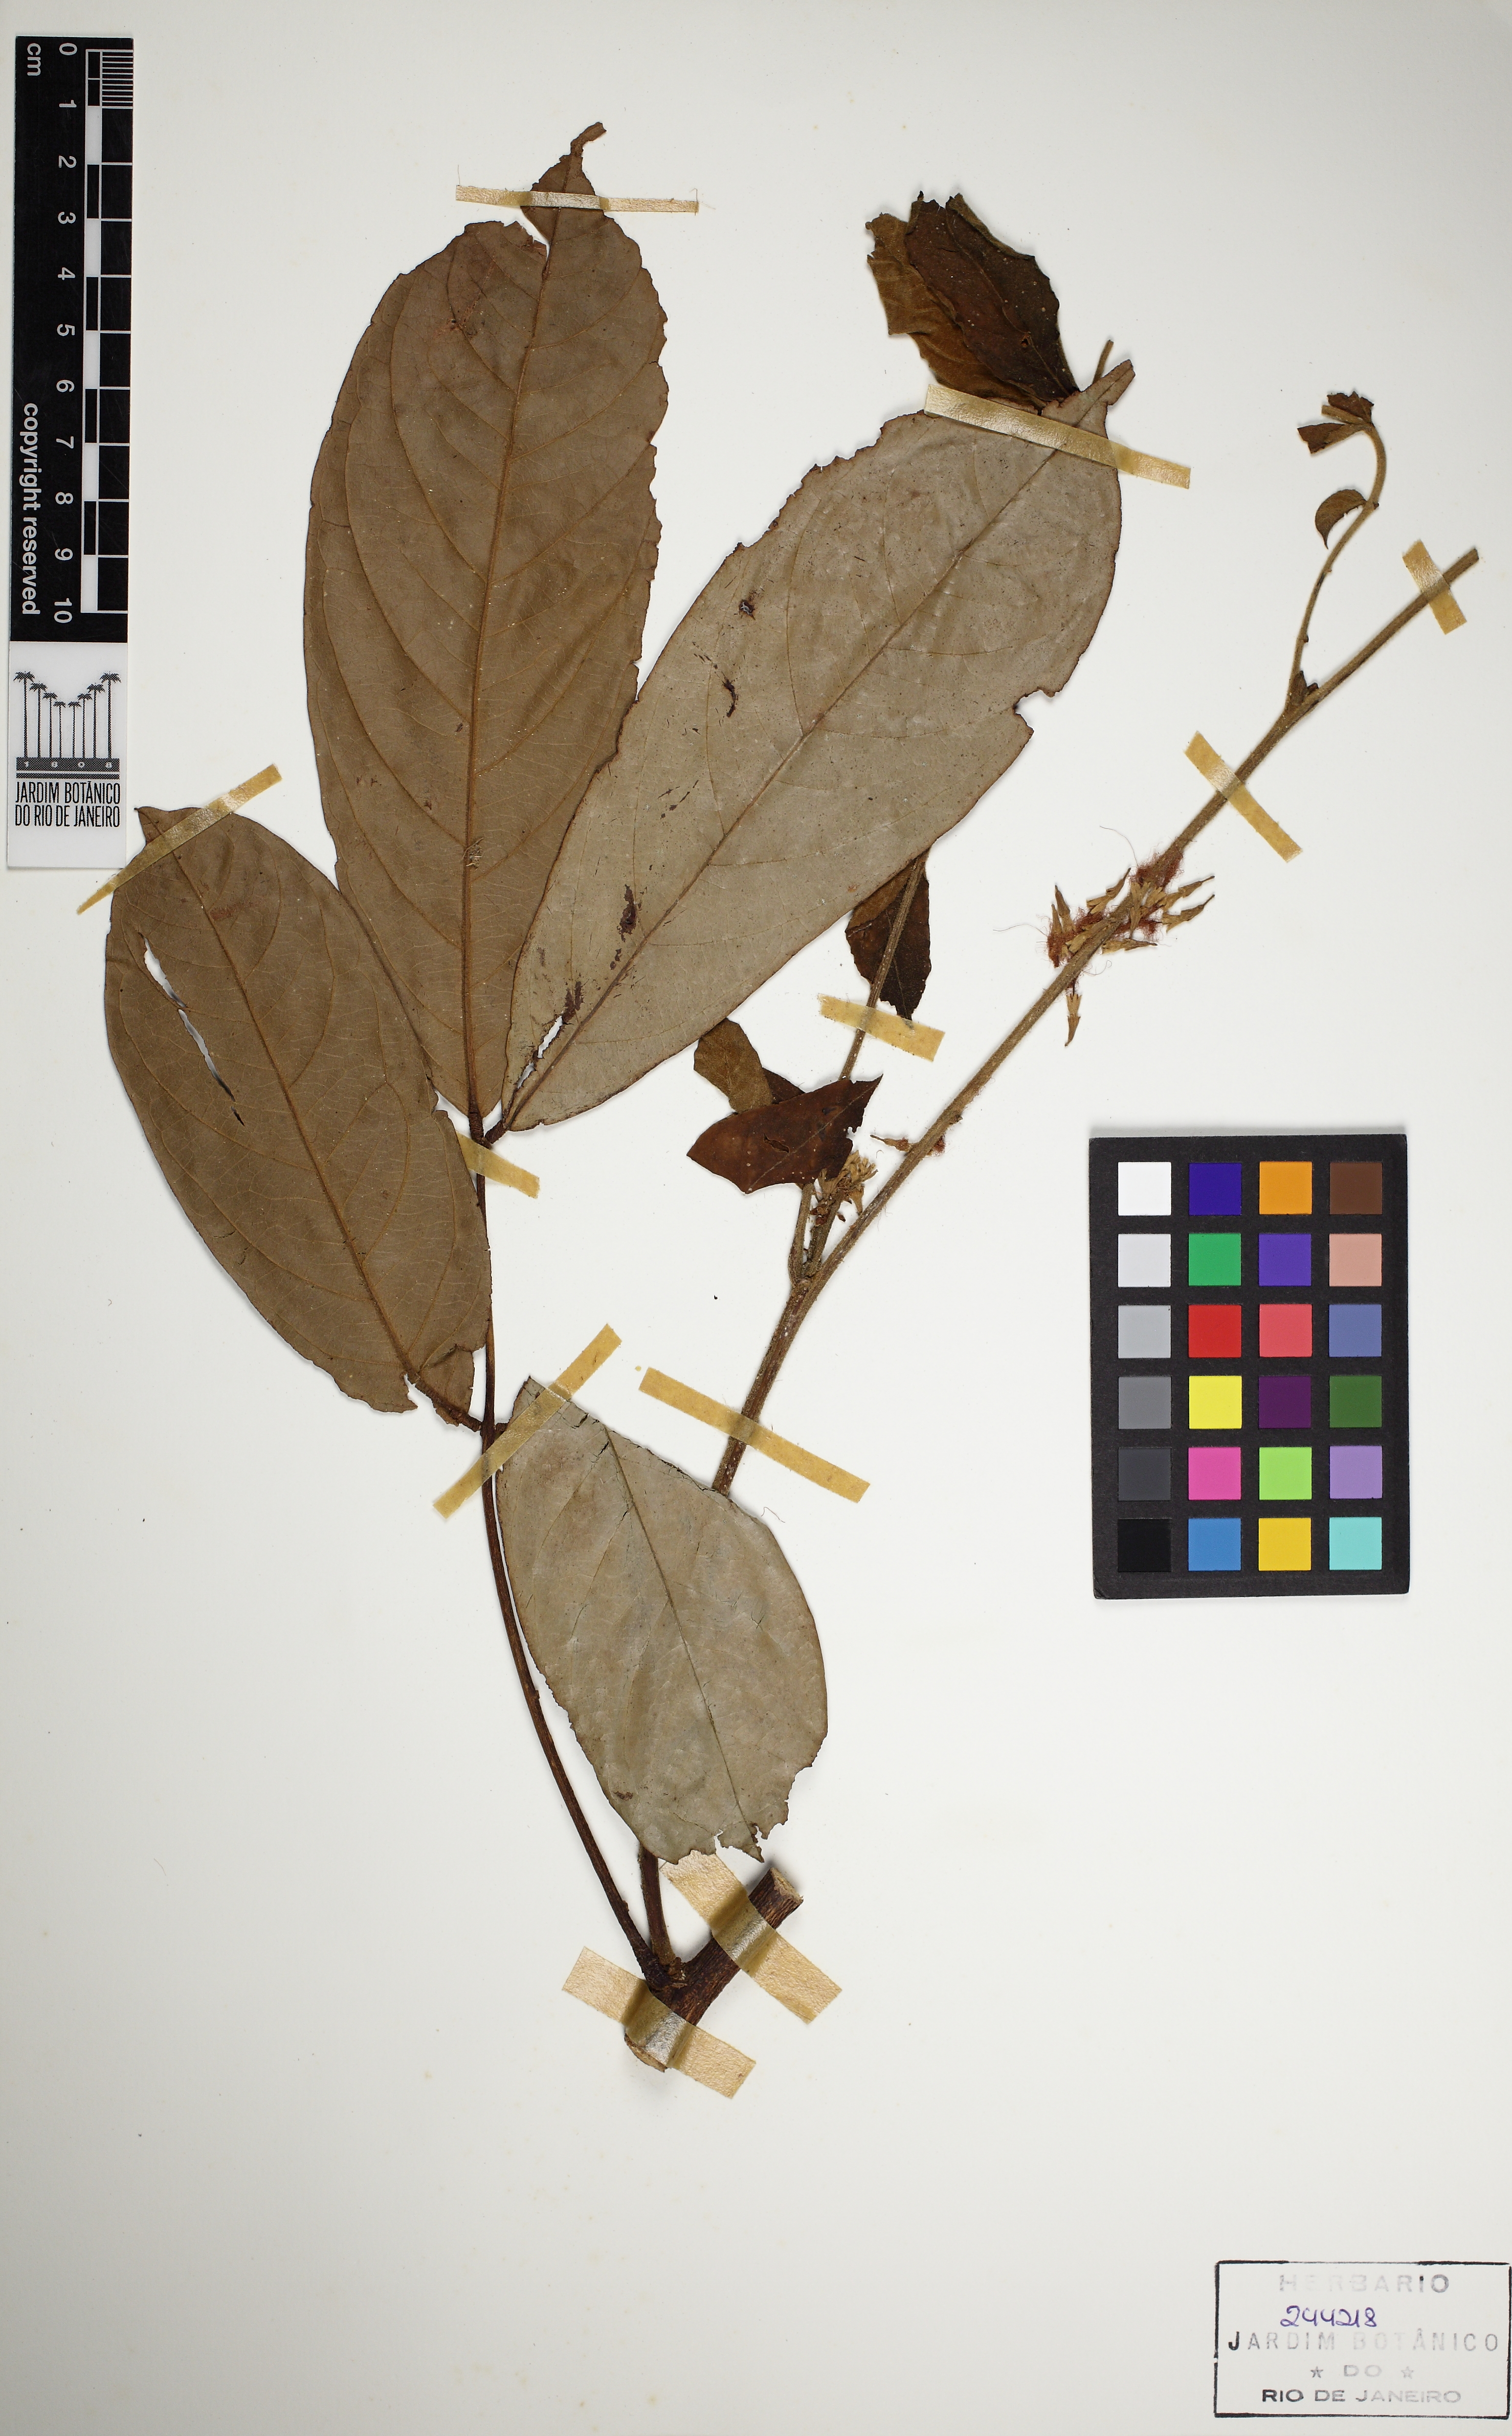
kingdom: Plantae
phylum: Tracheophyta
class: Magnoliopsida
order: Fabales
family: Fabaceae
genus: Inga
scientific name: Inga nobilis
